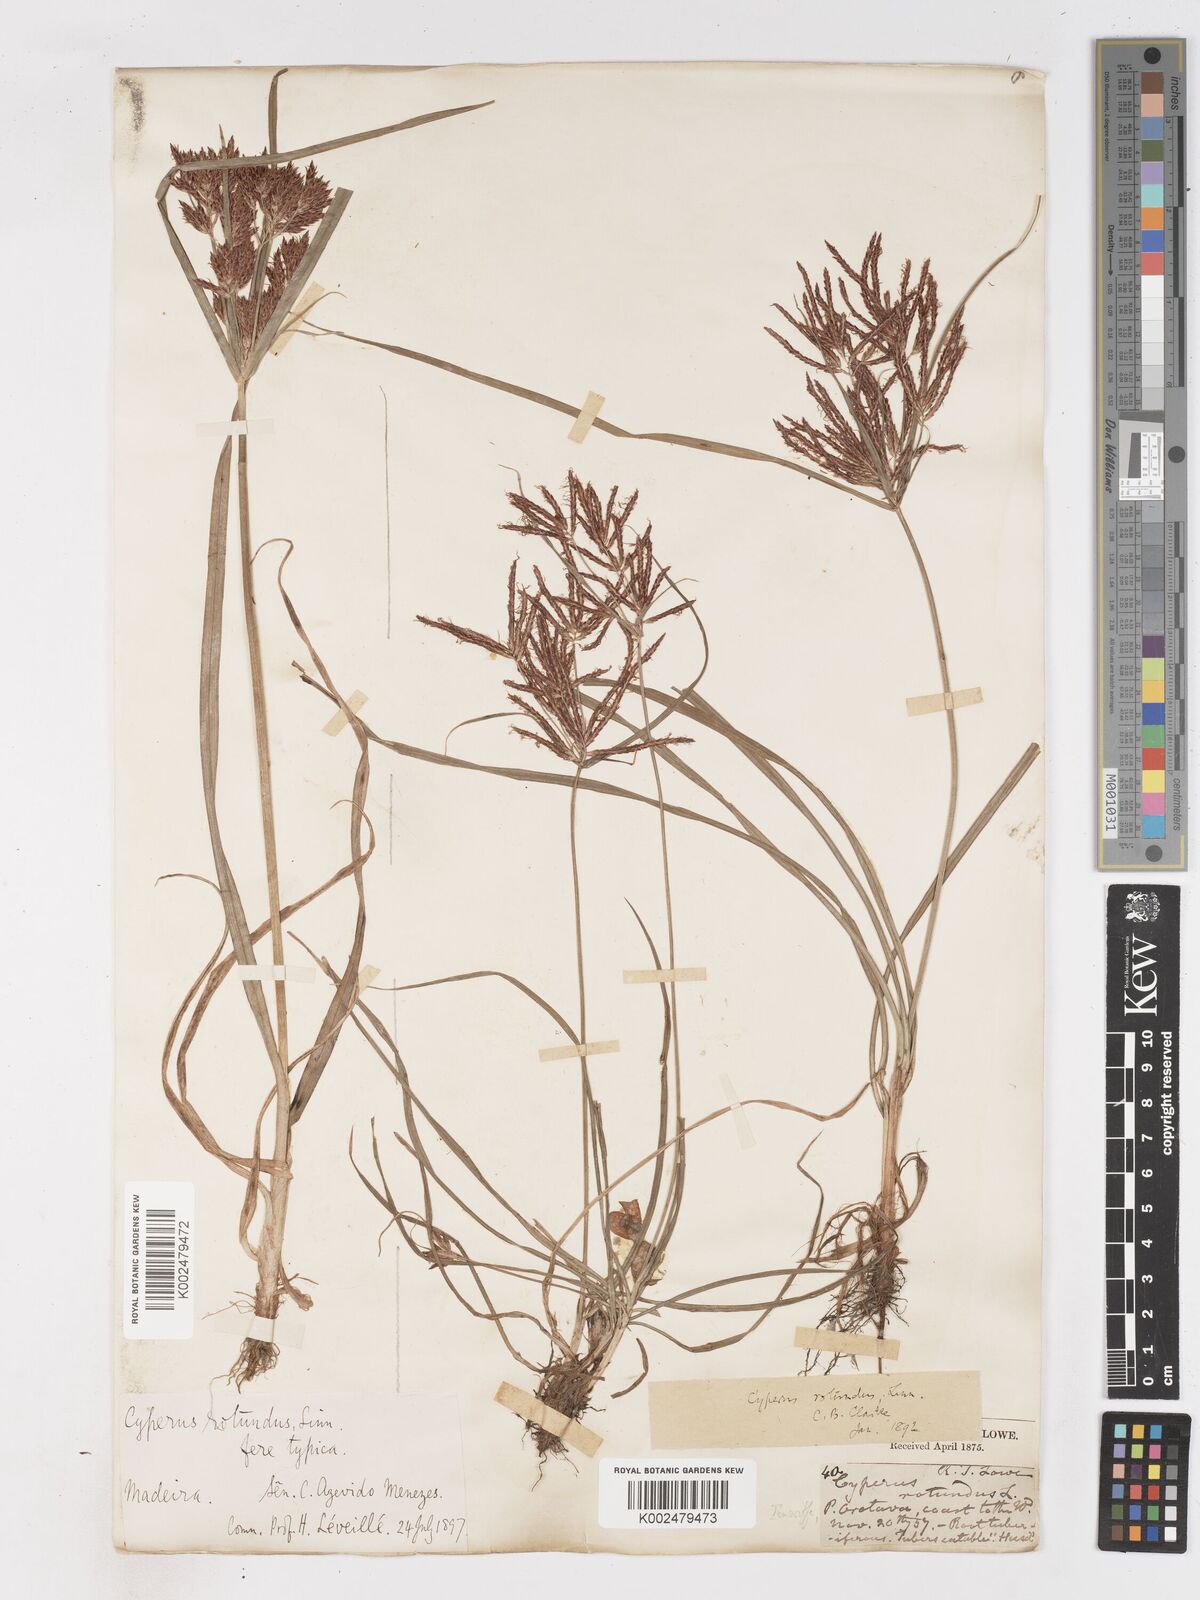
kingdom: Plantae
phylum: Tracheophyta
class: Liliopsida
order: Poales
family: Cyperaceae
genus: Cyperus
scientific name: Cyperus rotundus
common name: Nutgrass
